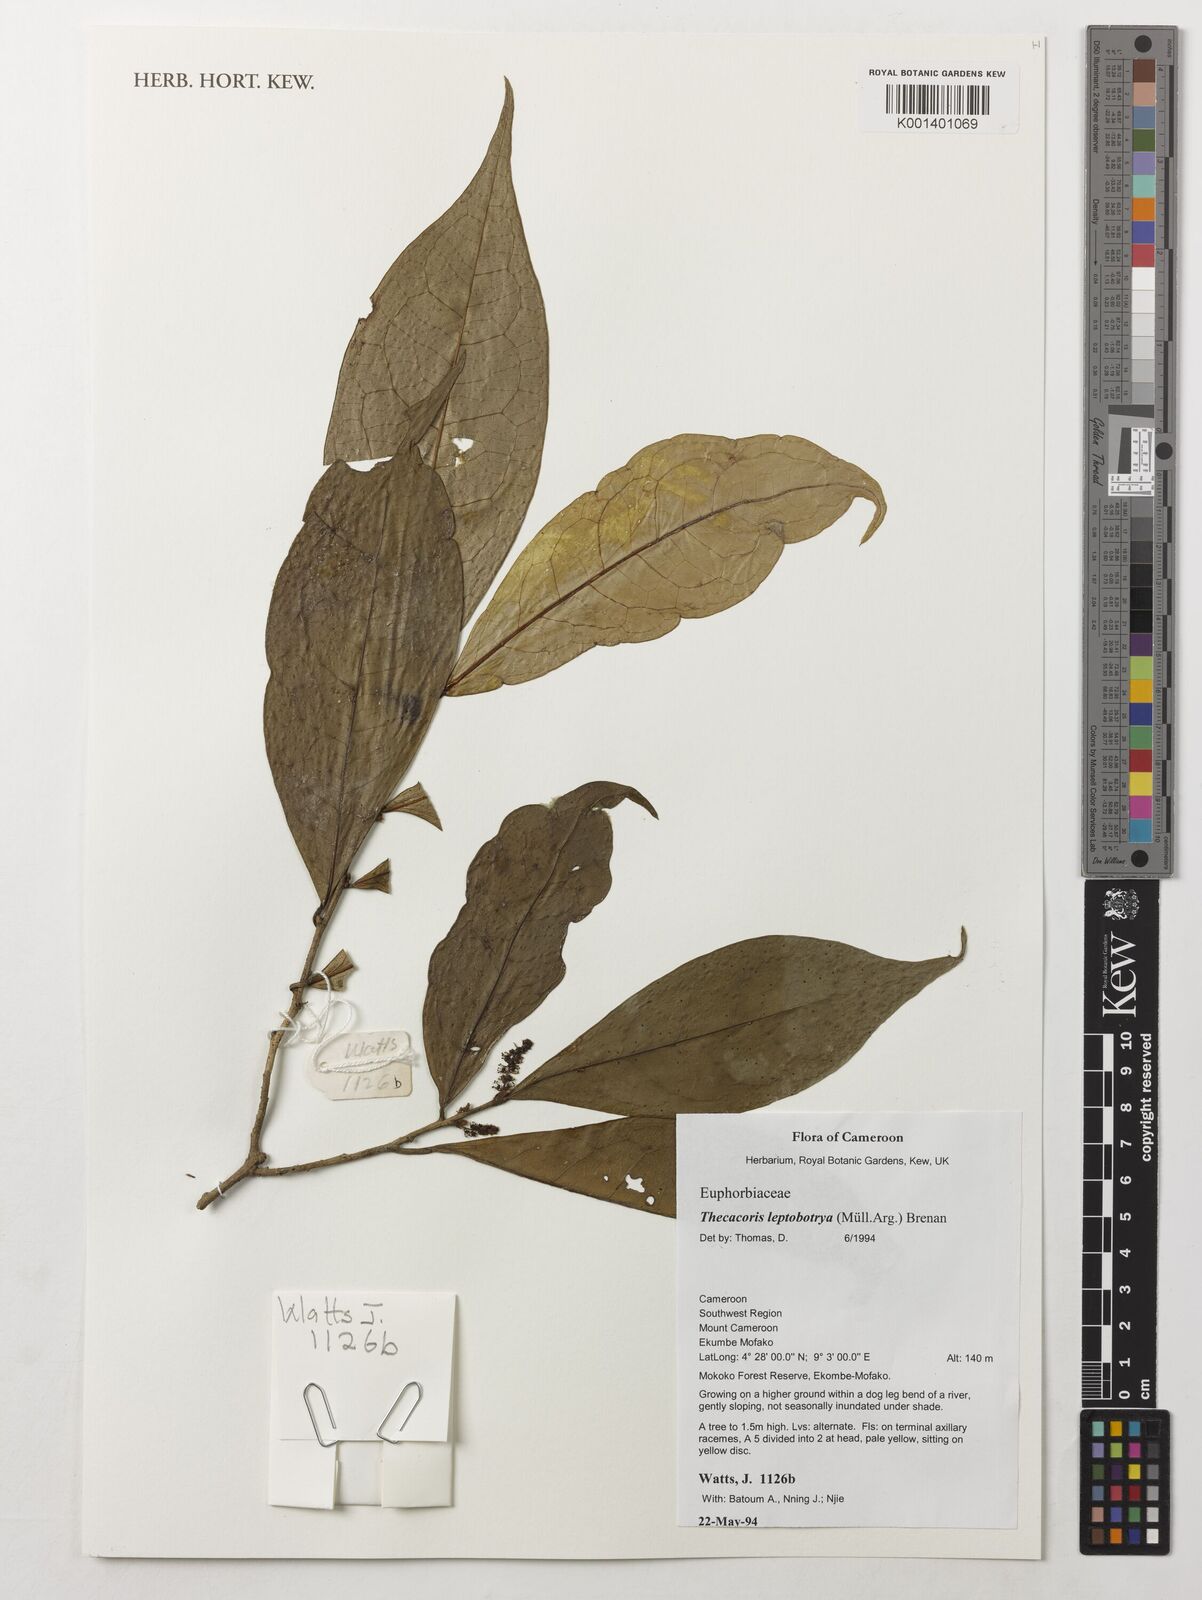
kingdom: Plantae
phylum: Tracheophyta
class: Magnoliopsida
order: Malpighiales
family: Phyllanthaceae
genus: Thecacoris
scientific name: Thecacoris leptobotrya
